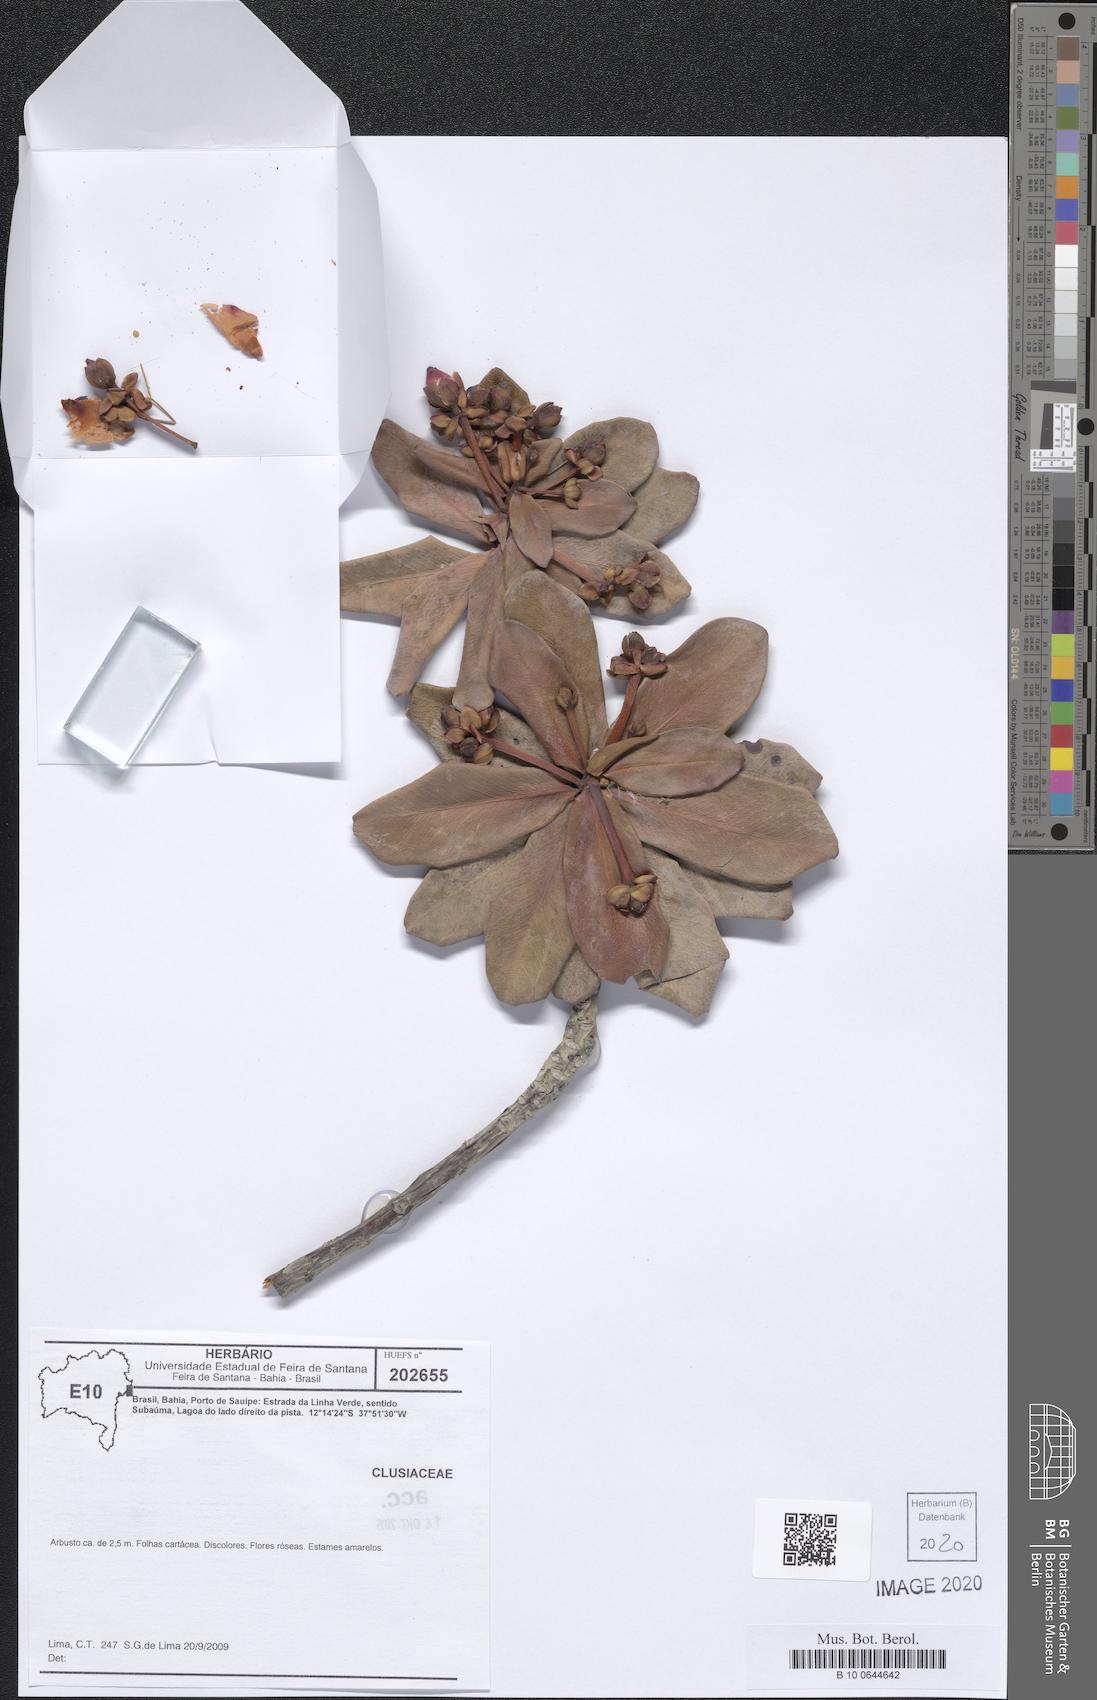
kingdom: Plantae
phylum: Tracheophyta
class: Magnoliopsida
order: Malpighiales
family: Clusiaceae
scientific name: Clusiaceae
